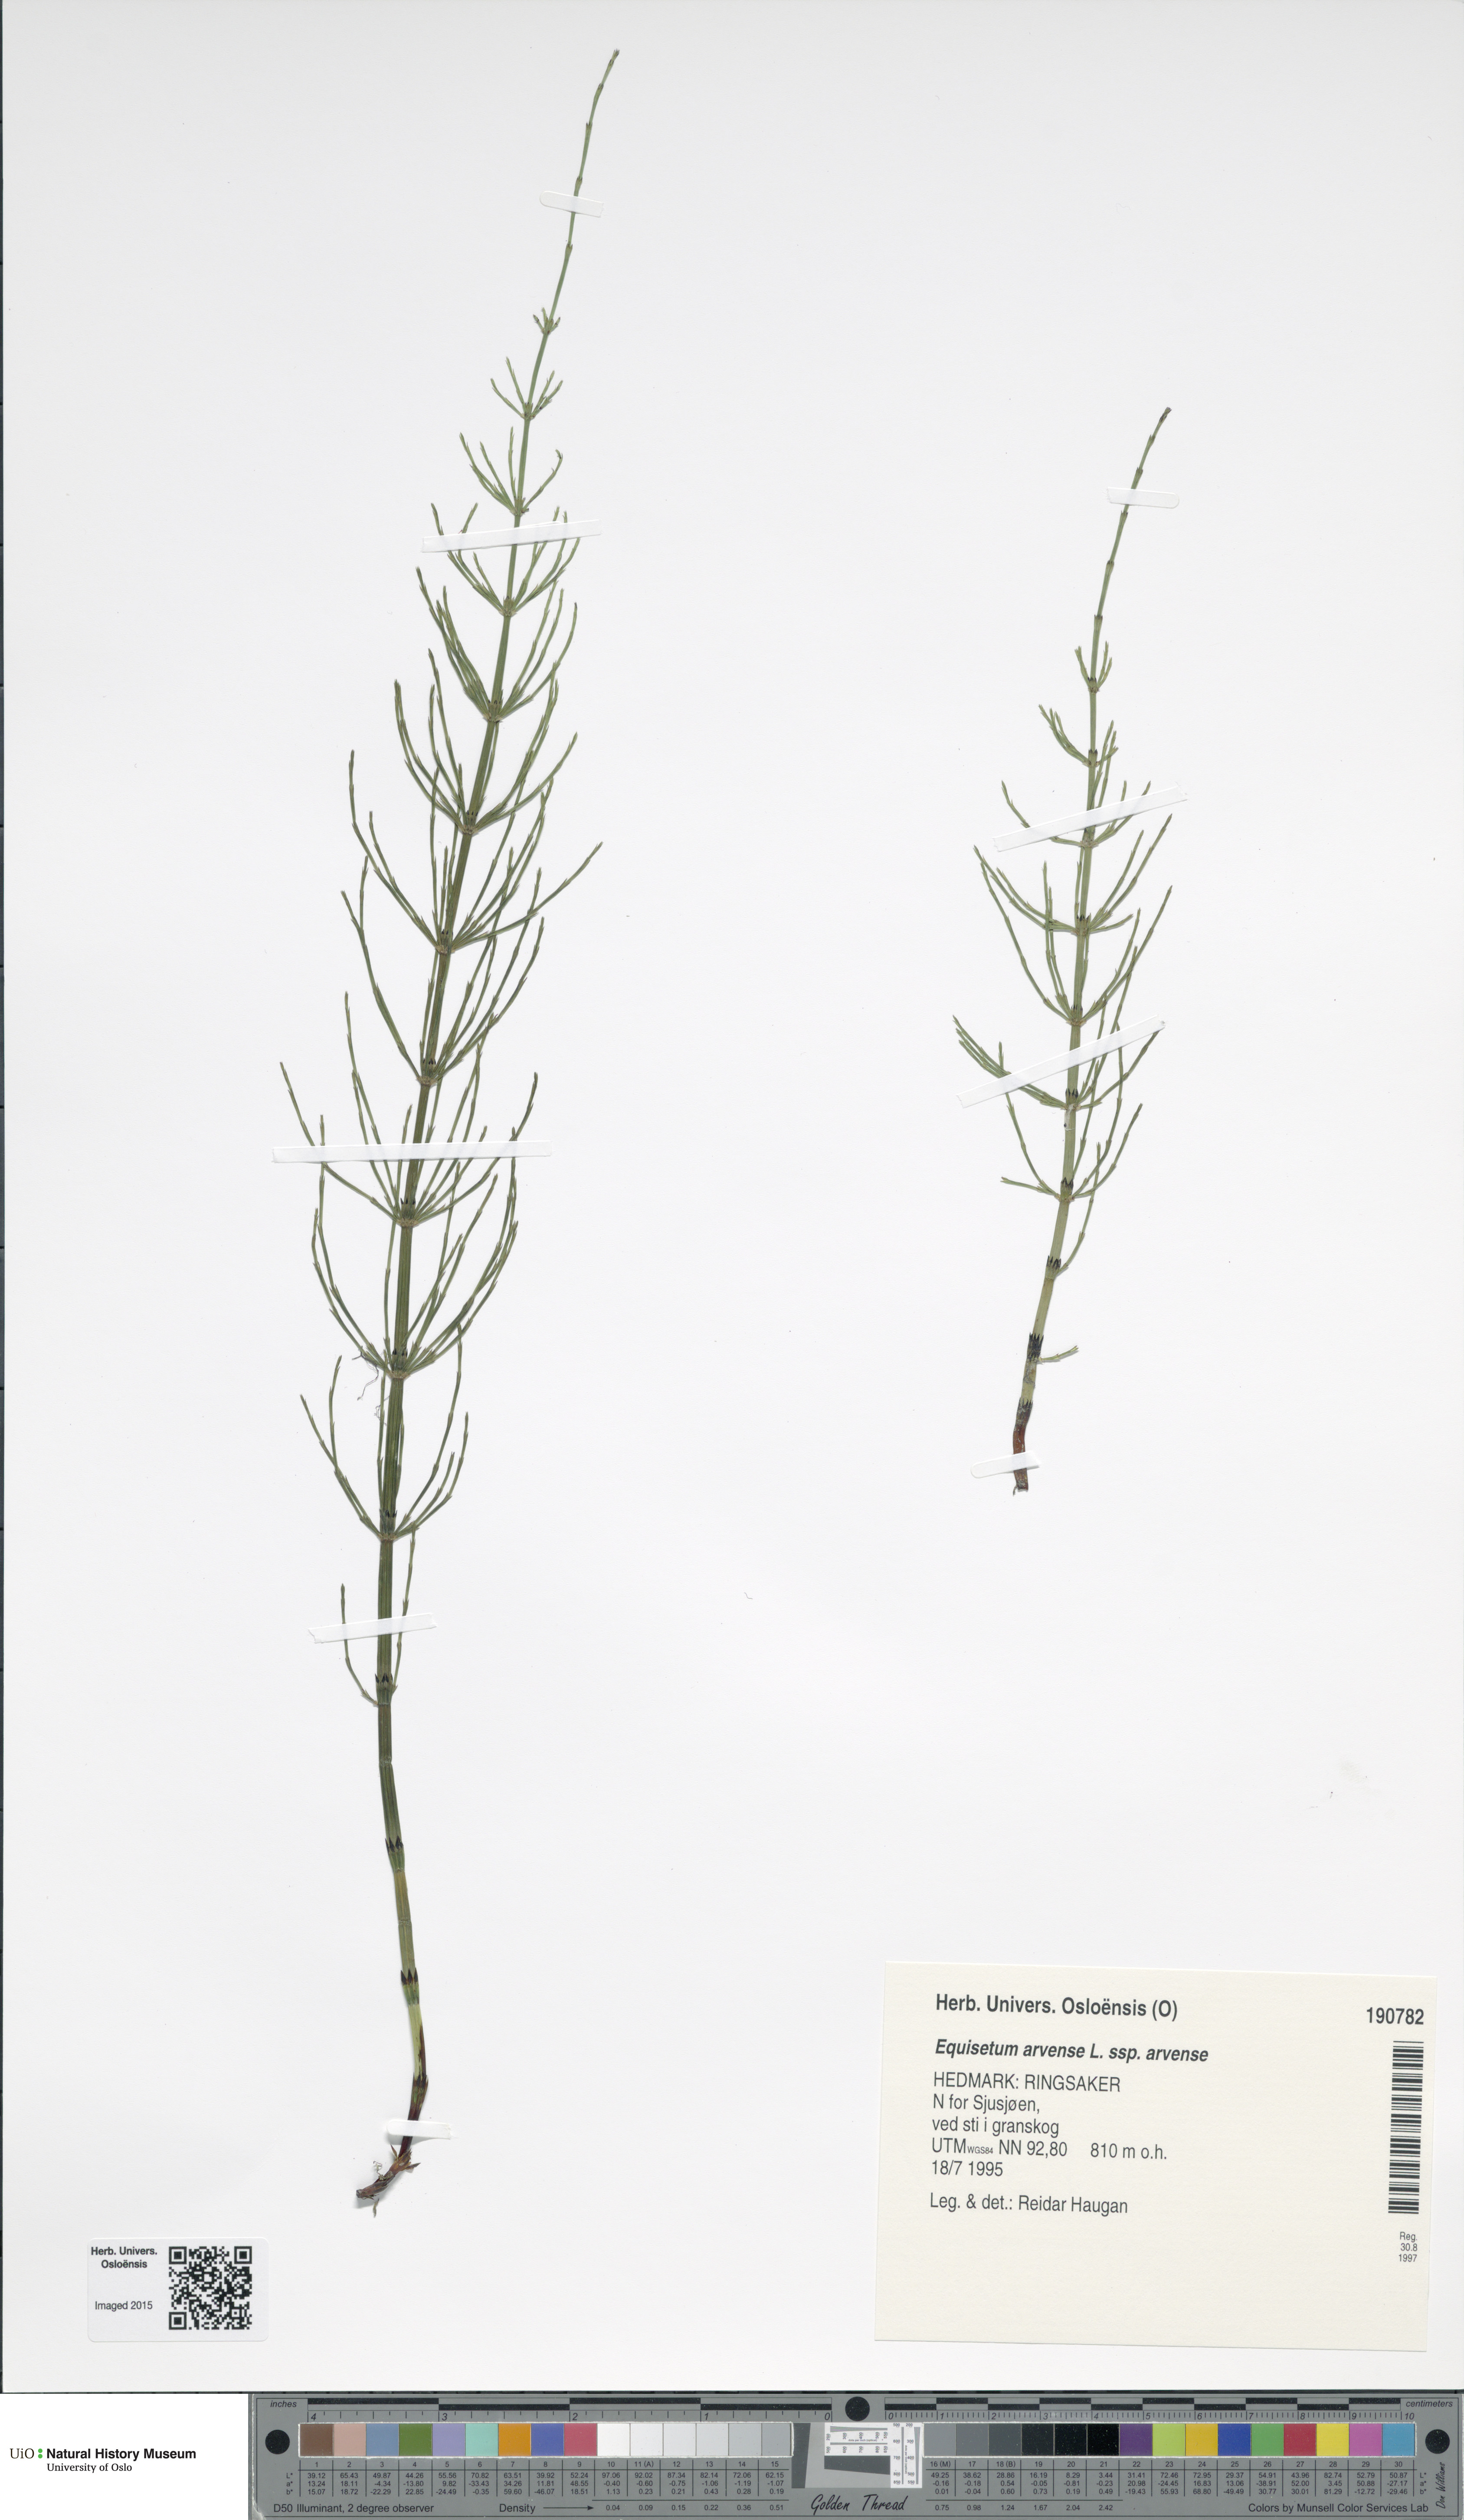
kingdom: Plantae
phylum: Tracheophyta
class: Polypodiopsida
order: Equisetales
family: Equisetaceae
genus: Equisetum
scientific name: Equisetum arvense
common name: Field horsetail
